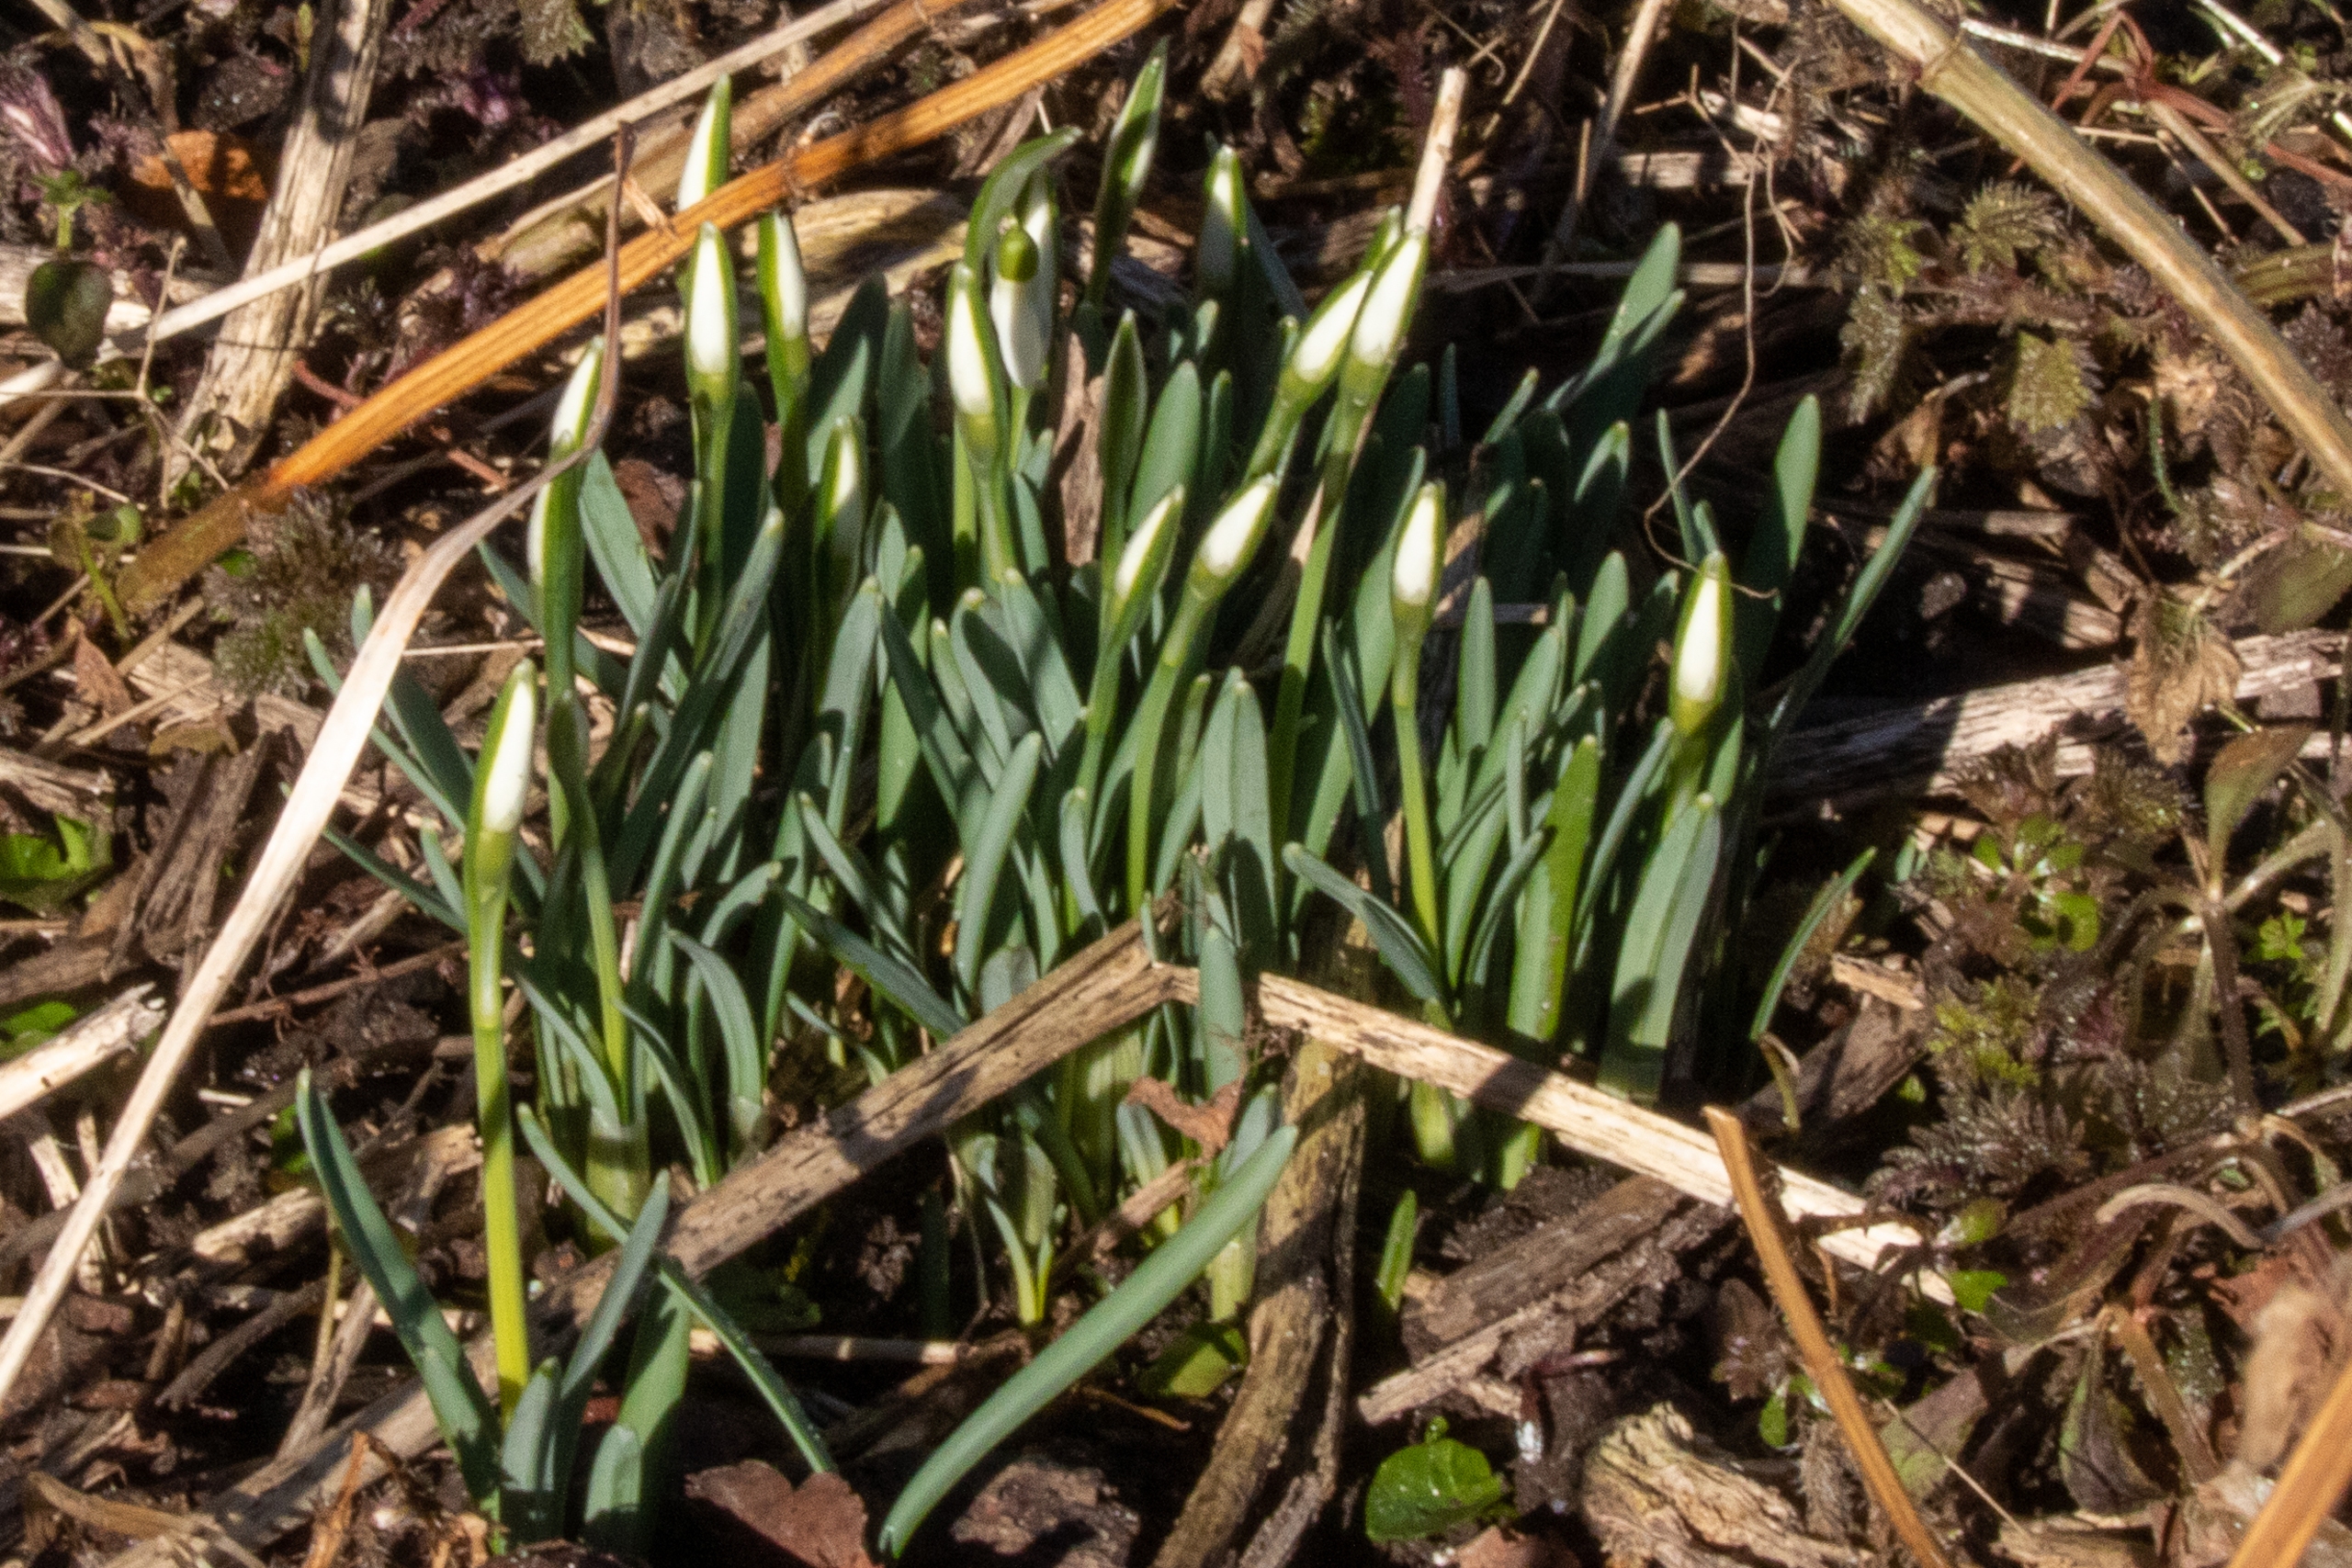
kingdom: Plantae
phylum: Tracheophyta
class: Liliopsida
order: Asparagales
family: Amaryllidaceae
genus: Galanthus
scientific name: Galanthus nivalis
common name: Vintergæk
